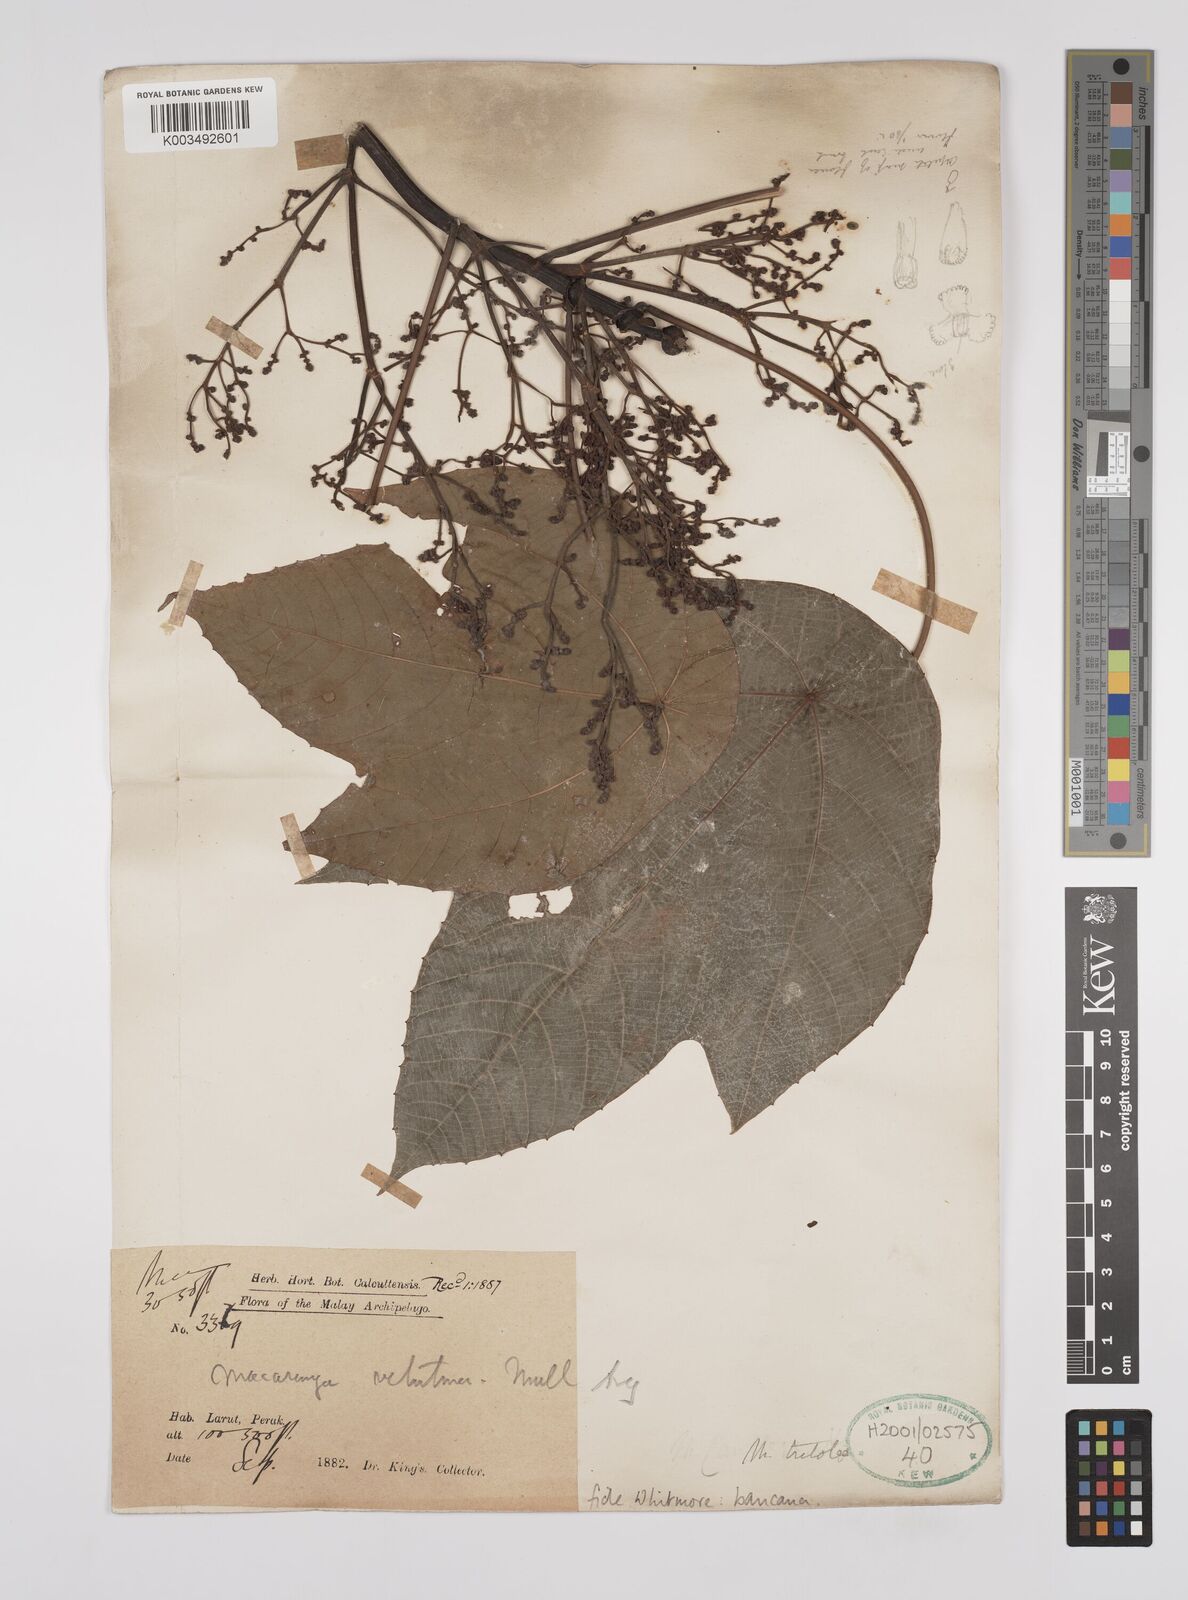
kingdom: Plantae
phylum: Tracheophyta
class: Magnoliopsida
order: Malpighiales
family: Euphorbiaceae
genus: Macaranga
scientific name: Macaranga bancana
